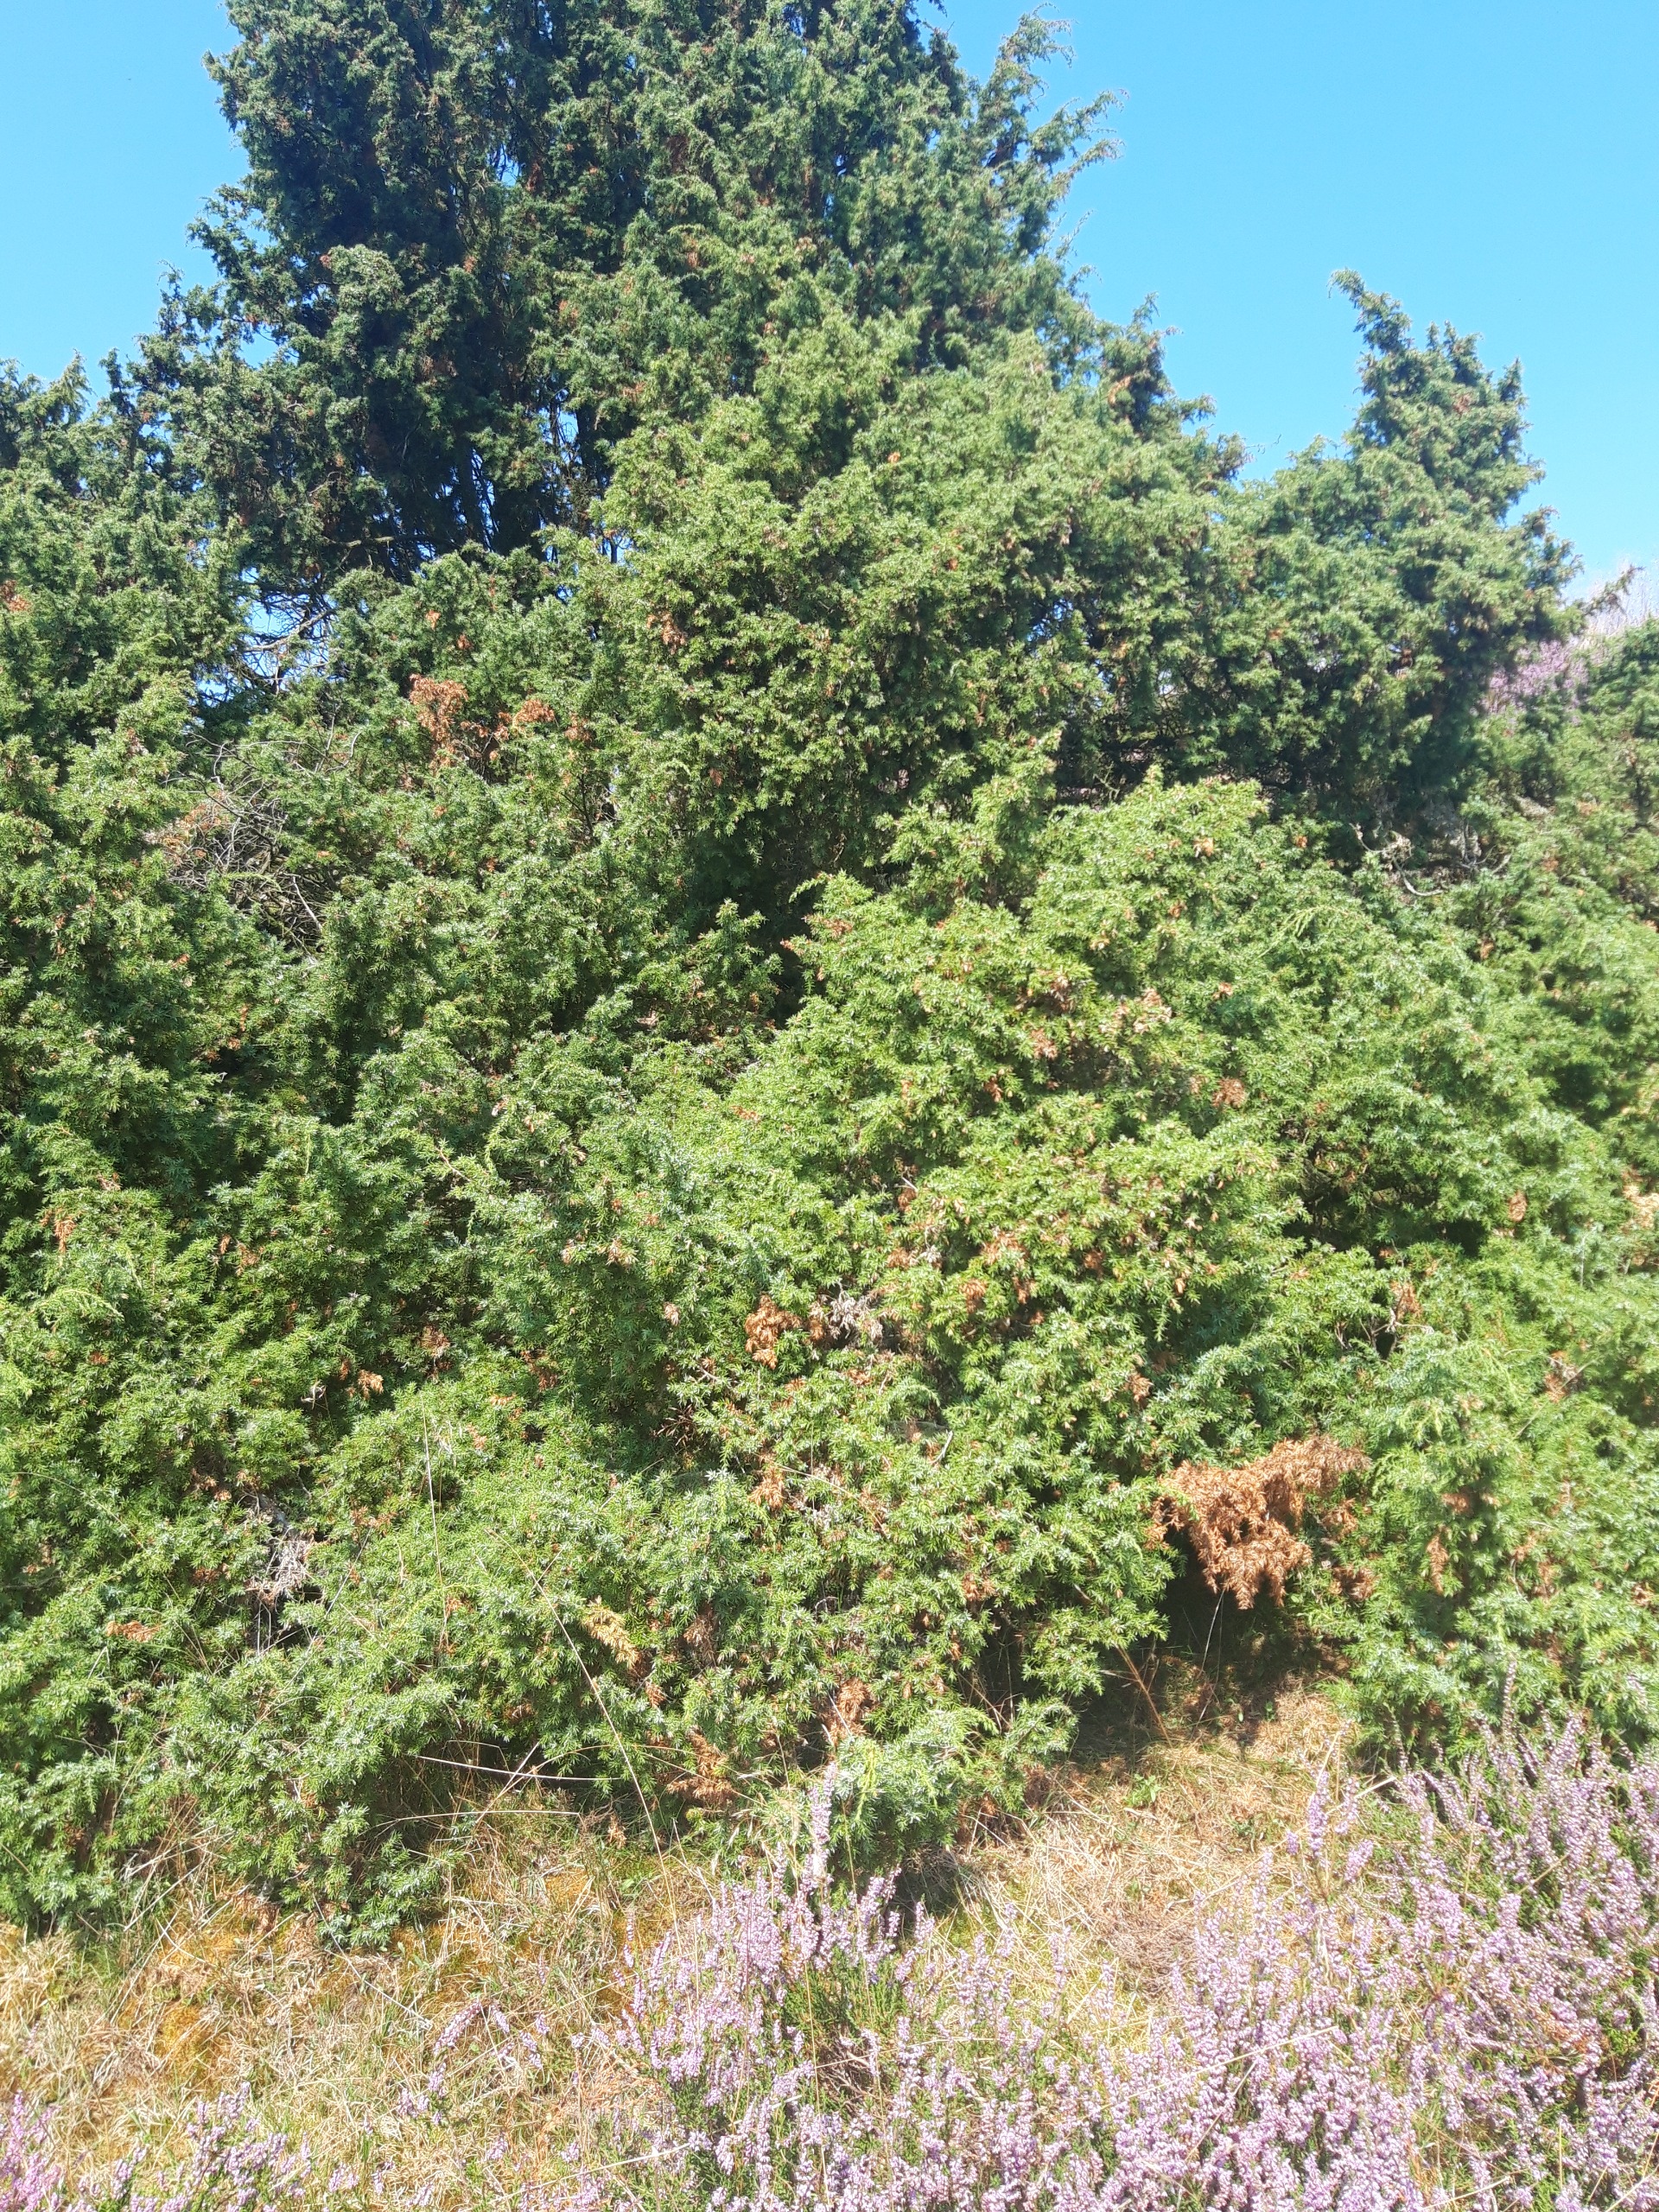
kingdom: Plantae
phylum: Tracheophyta
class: Pinopsida
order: Pinales
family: Cupressaceae
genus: Juniperus
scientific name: Juniperus communis
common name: Almindelig ene
